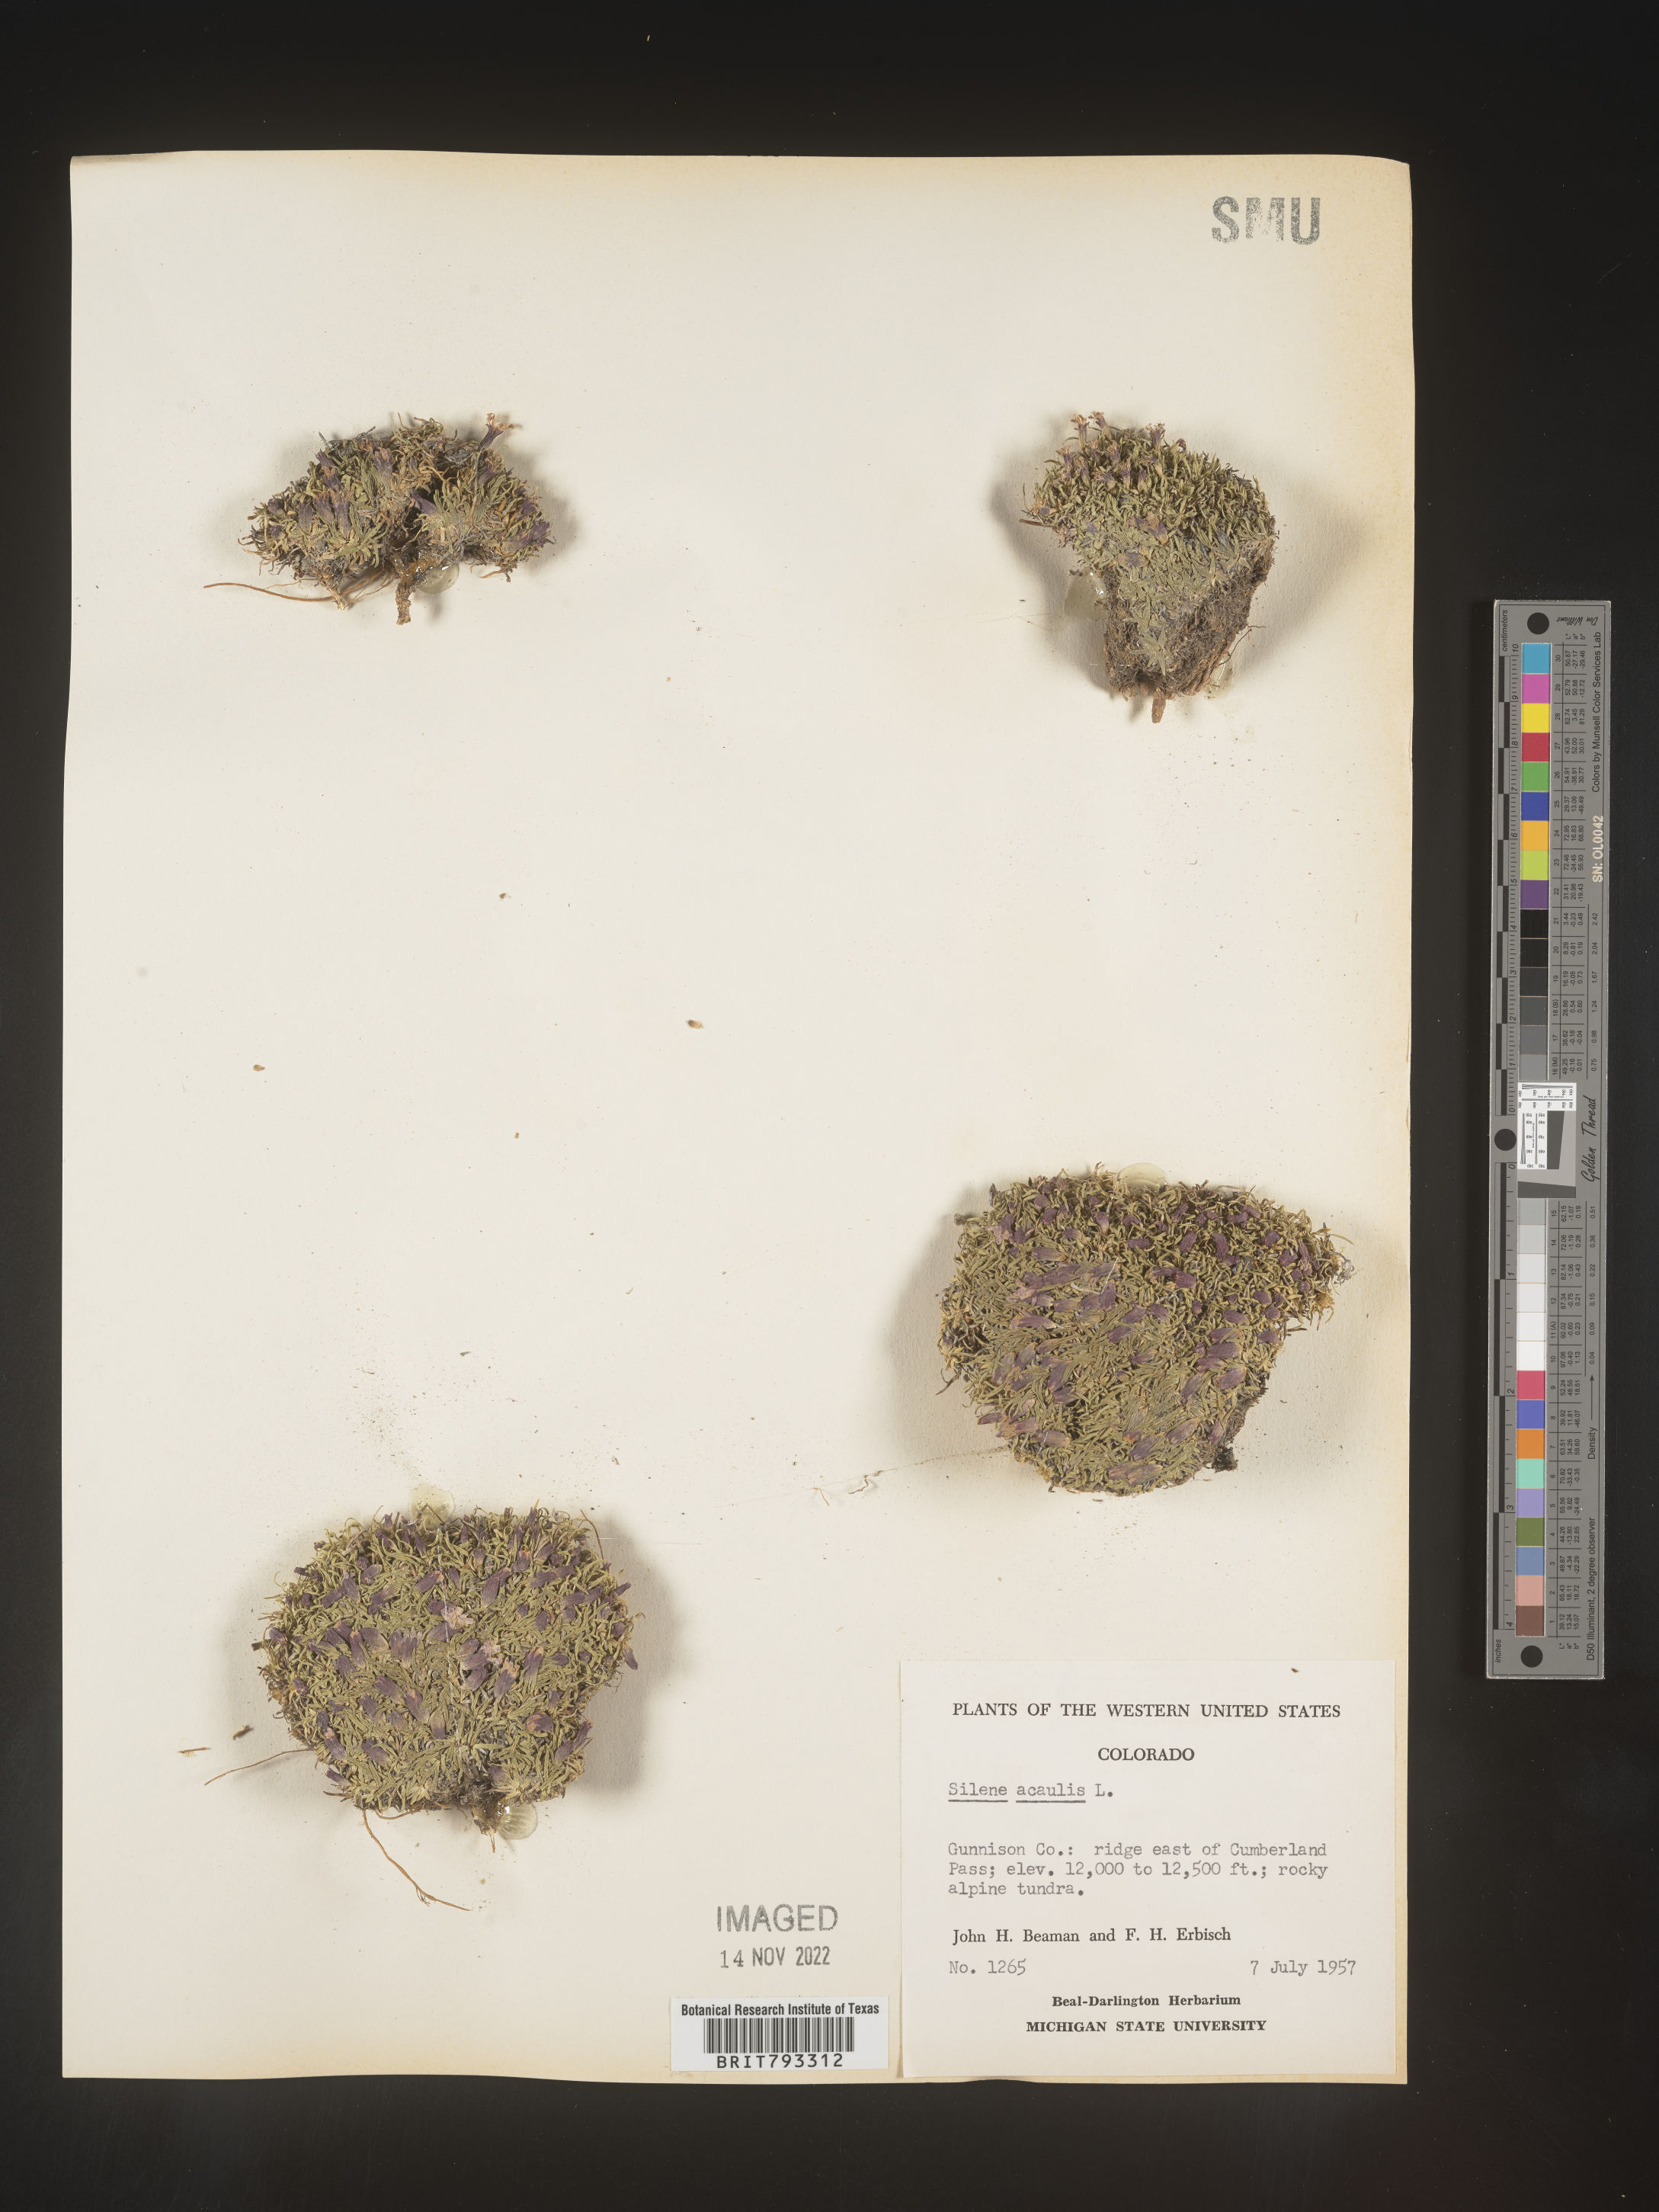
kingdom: Plantae
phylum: Tracheophyta
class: Magnoliopsida
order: Caryophyllales
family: Caryophyllaceae
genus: Silene
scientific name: Silene acaulis
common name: Moss campion
